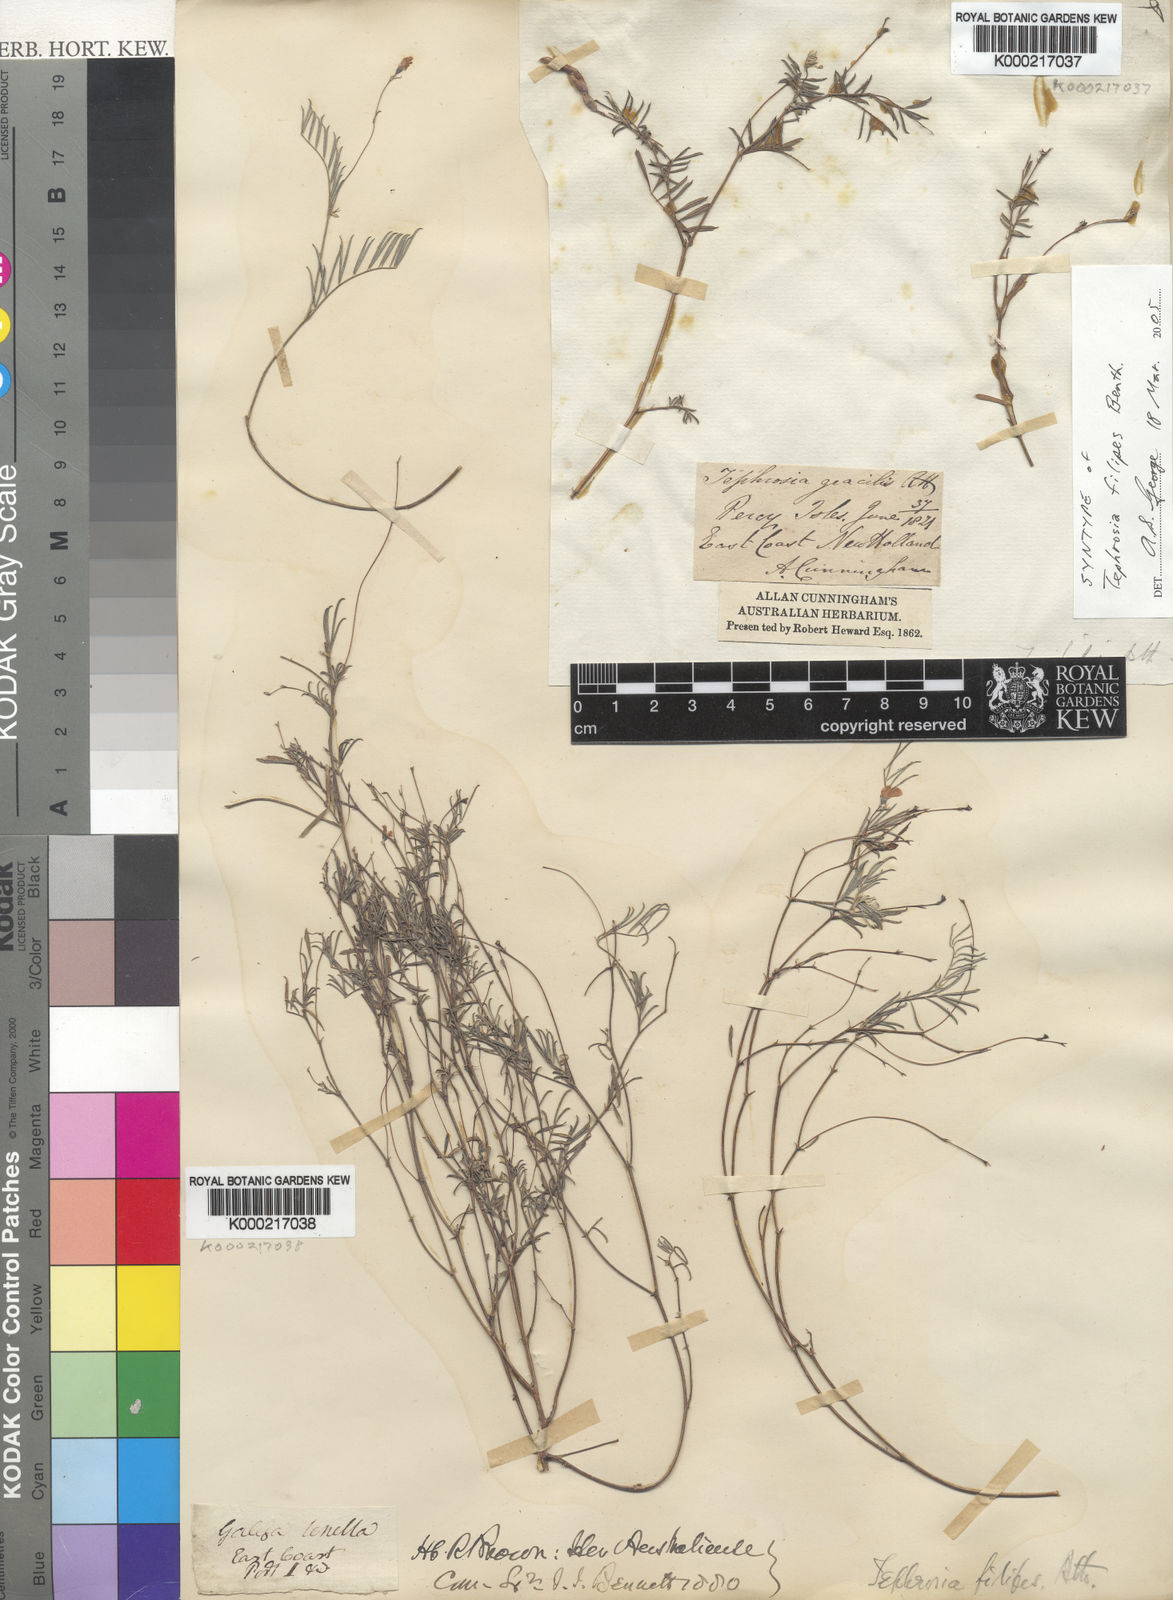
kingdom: Plantae
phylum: Tracheophyta
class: Magnoliopsida
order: Fabales
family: Fabaceae
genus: Tephrosia
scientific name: Tephrosia filipes
